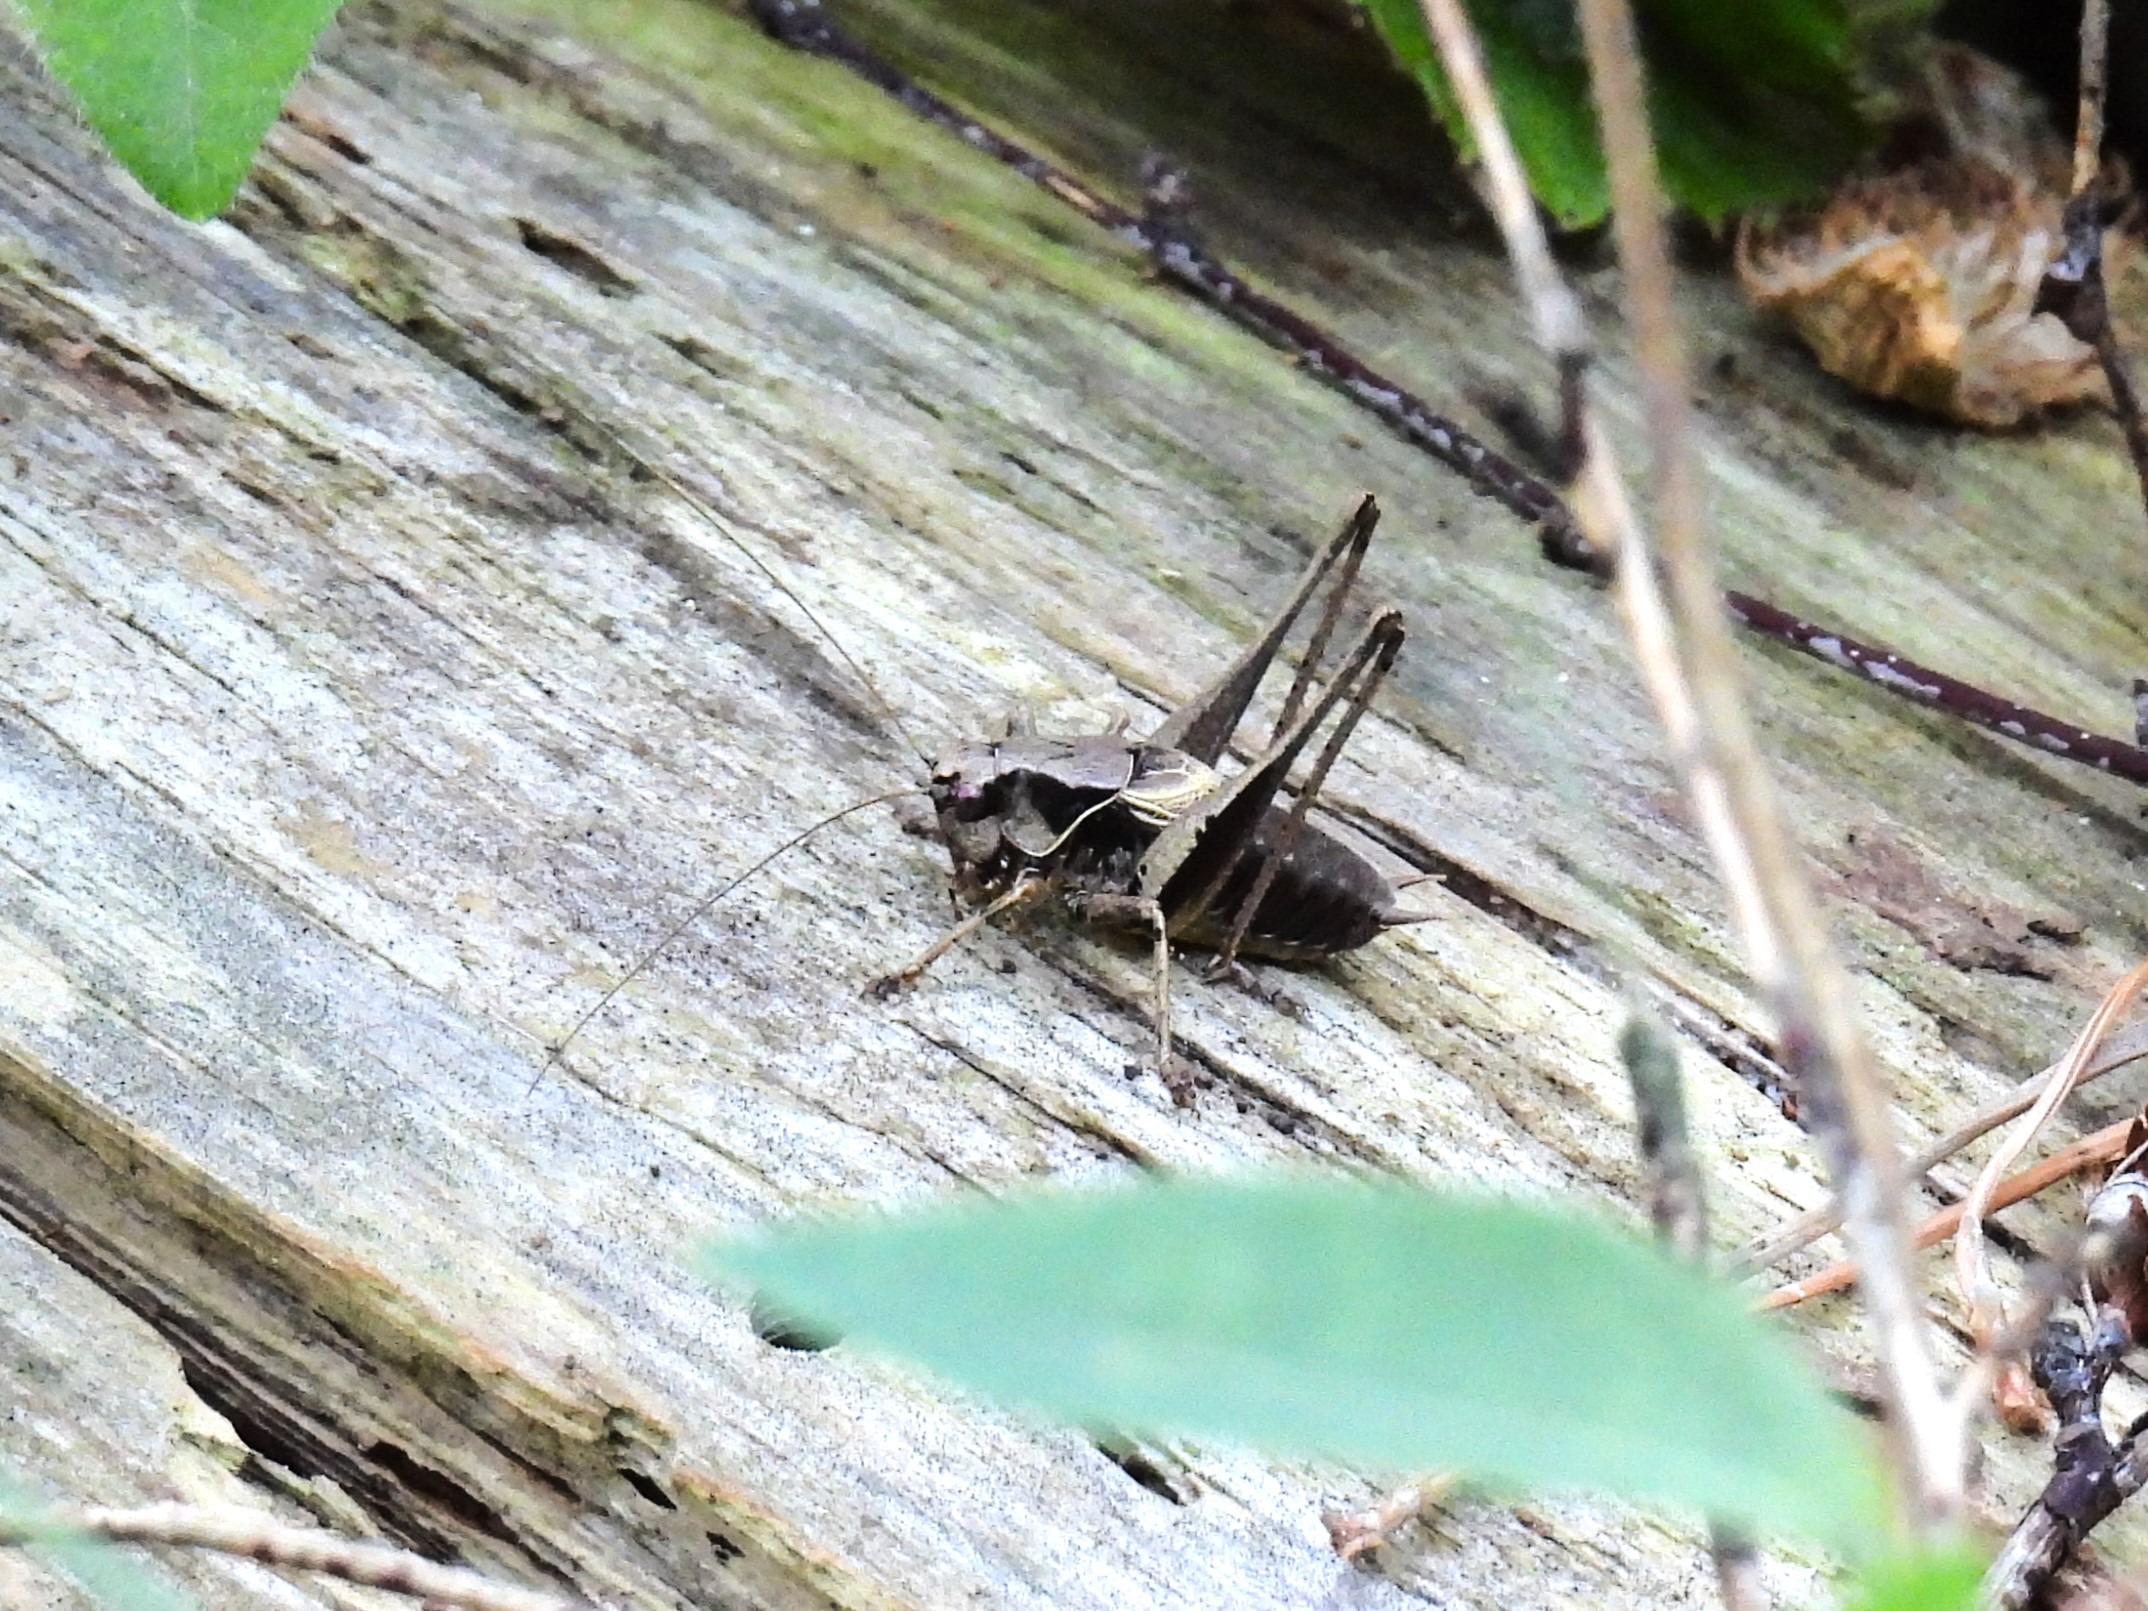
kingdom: Animalia
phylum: Arthropoda
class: Insecta
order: Orthoptera
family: Tettigoniidae
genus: Pholidoptera
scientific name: Pholidoptera griseoaptera
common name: Buskgræshoppe
